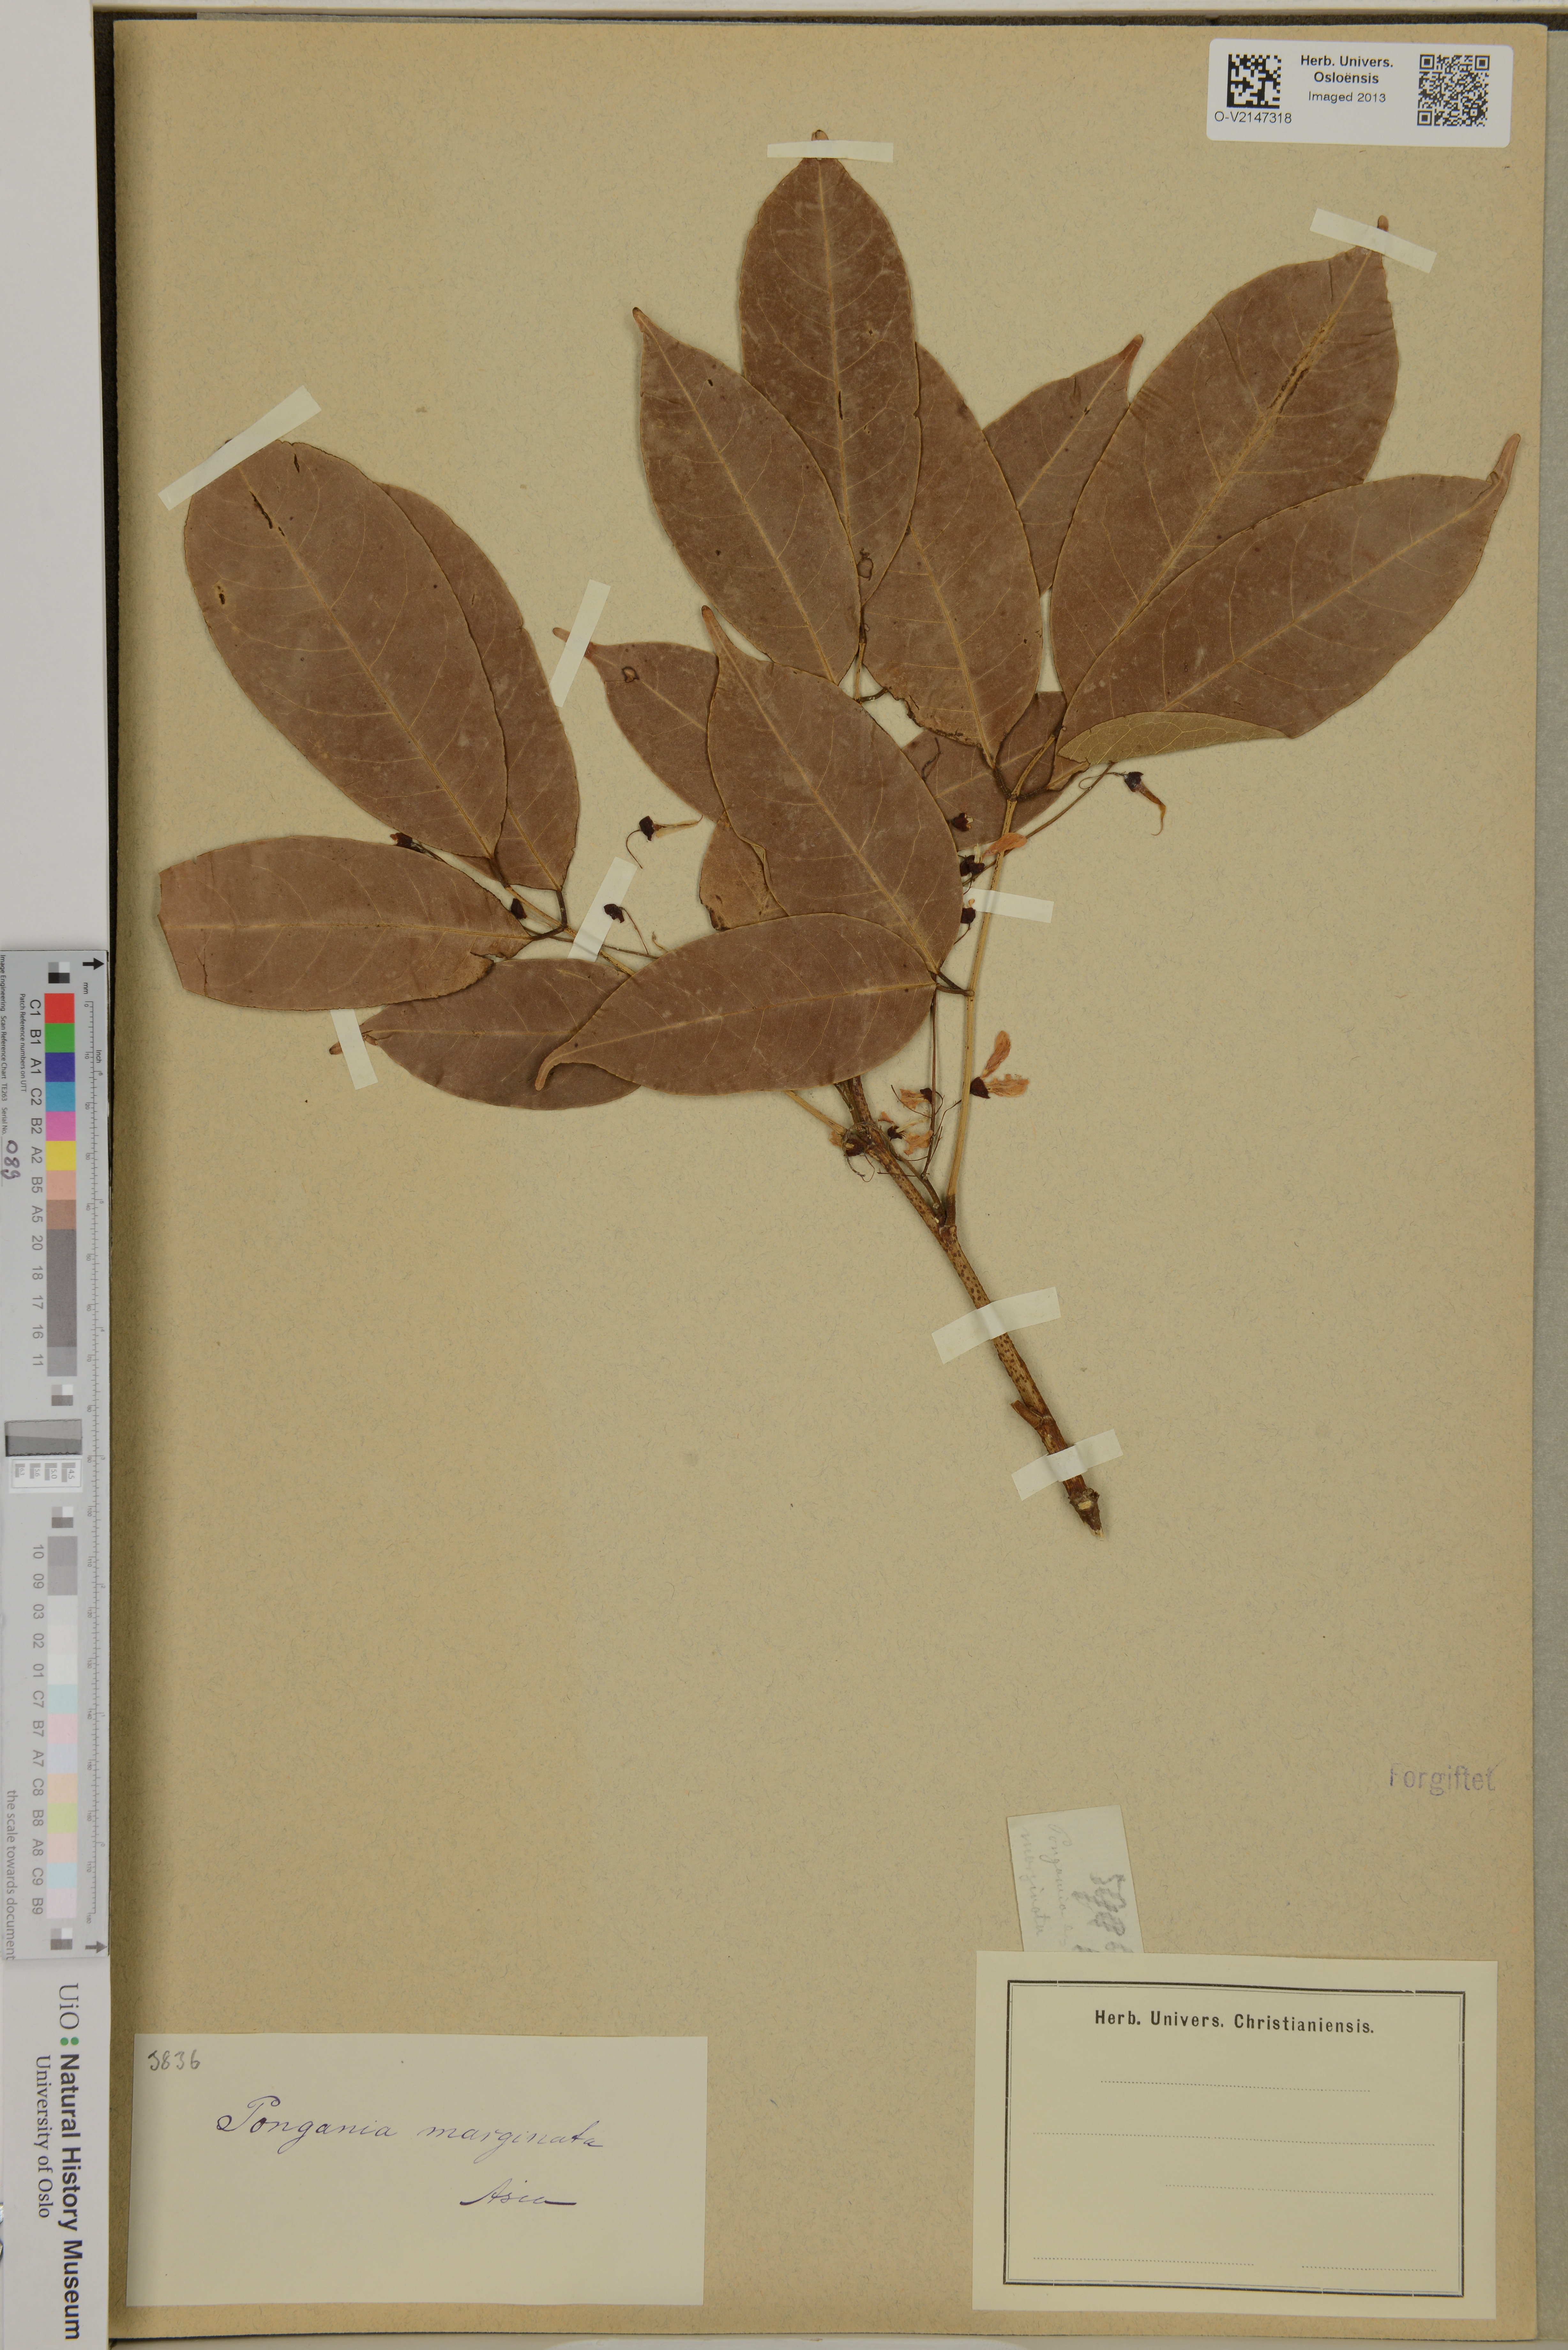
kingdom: Plantae
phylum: Tracheophyta
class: Magnoliopsida
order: Fabales
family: Fabaceae
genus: Derris
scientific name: Derris
